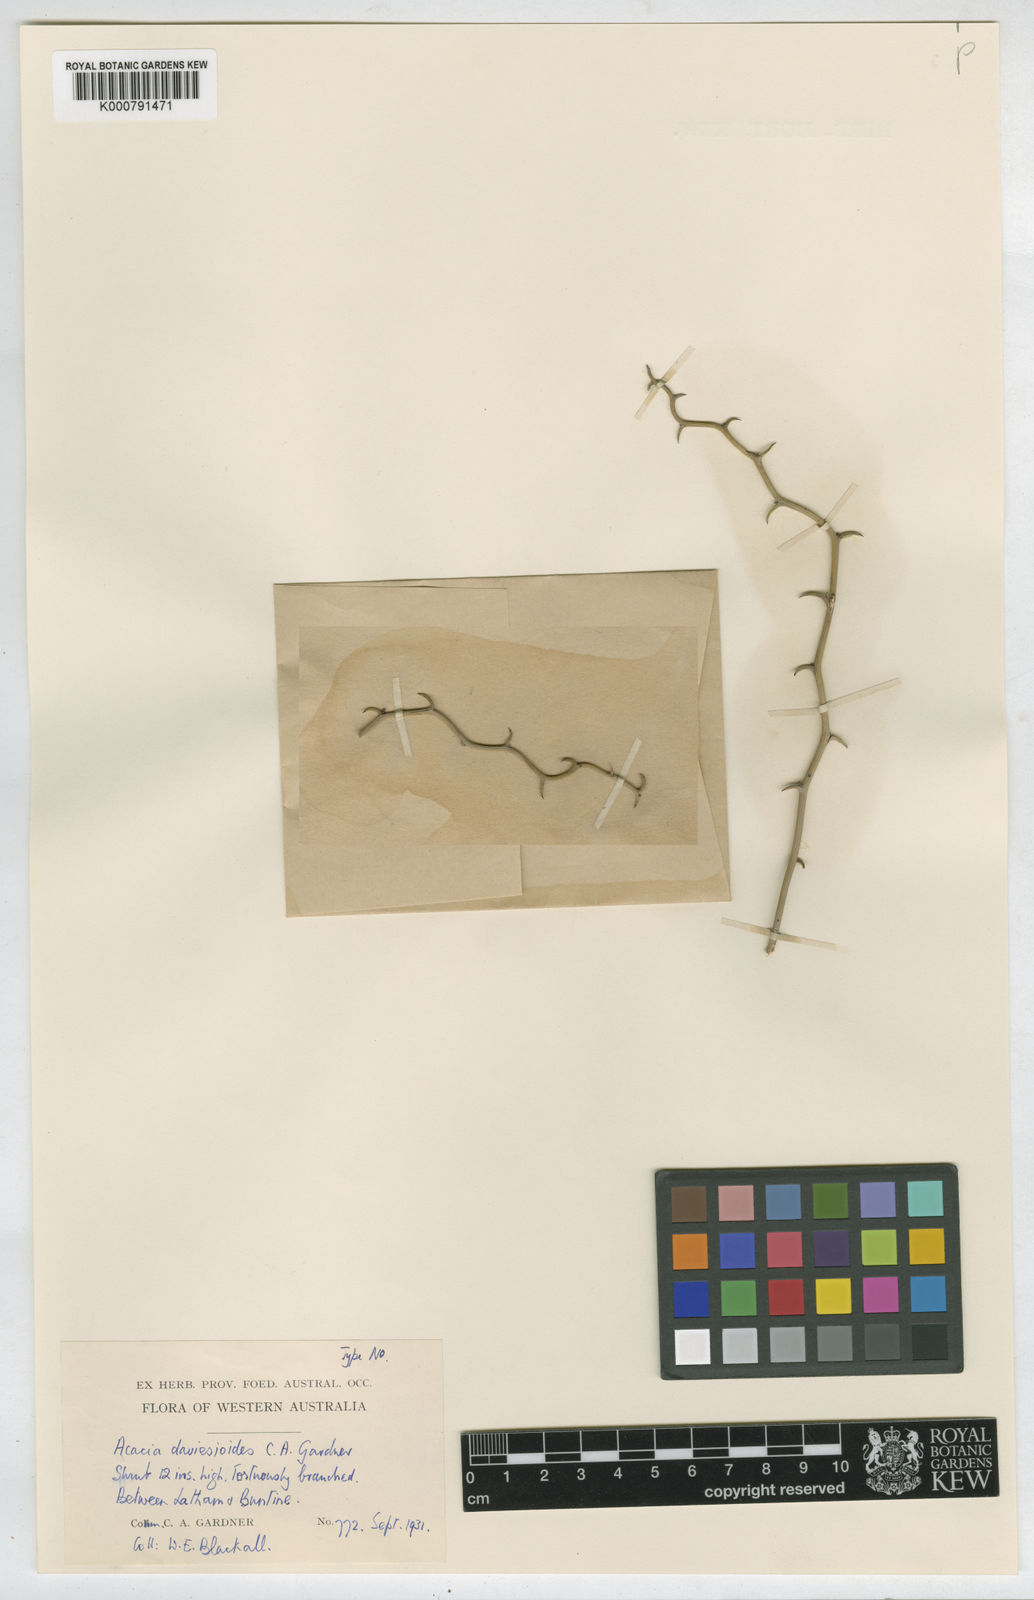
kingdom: Plantae
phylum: Tracheophyta
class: Magnoliopsida
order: Fabales
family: Fabaceae
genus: Acacia
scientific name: Acacia daviesioides
